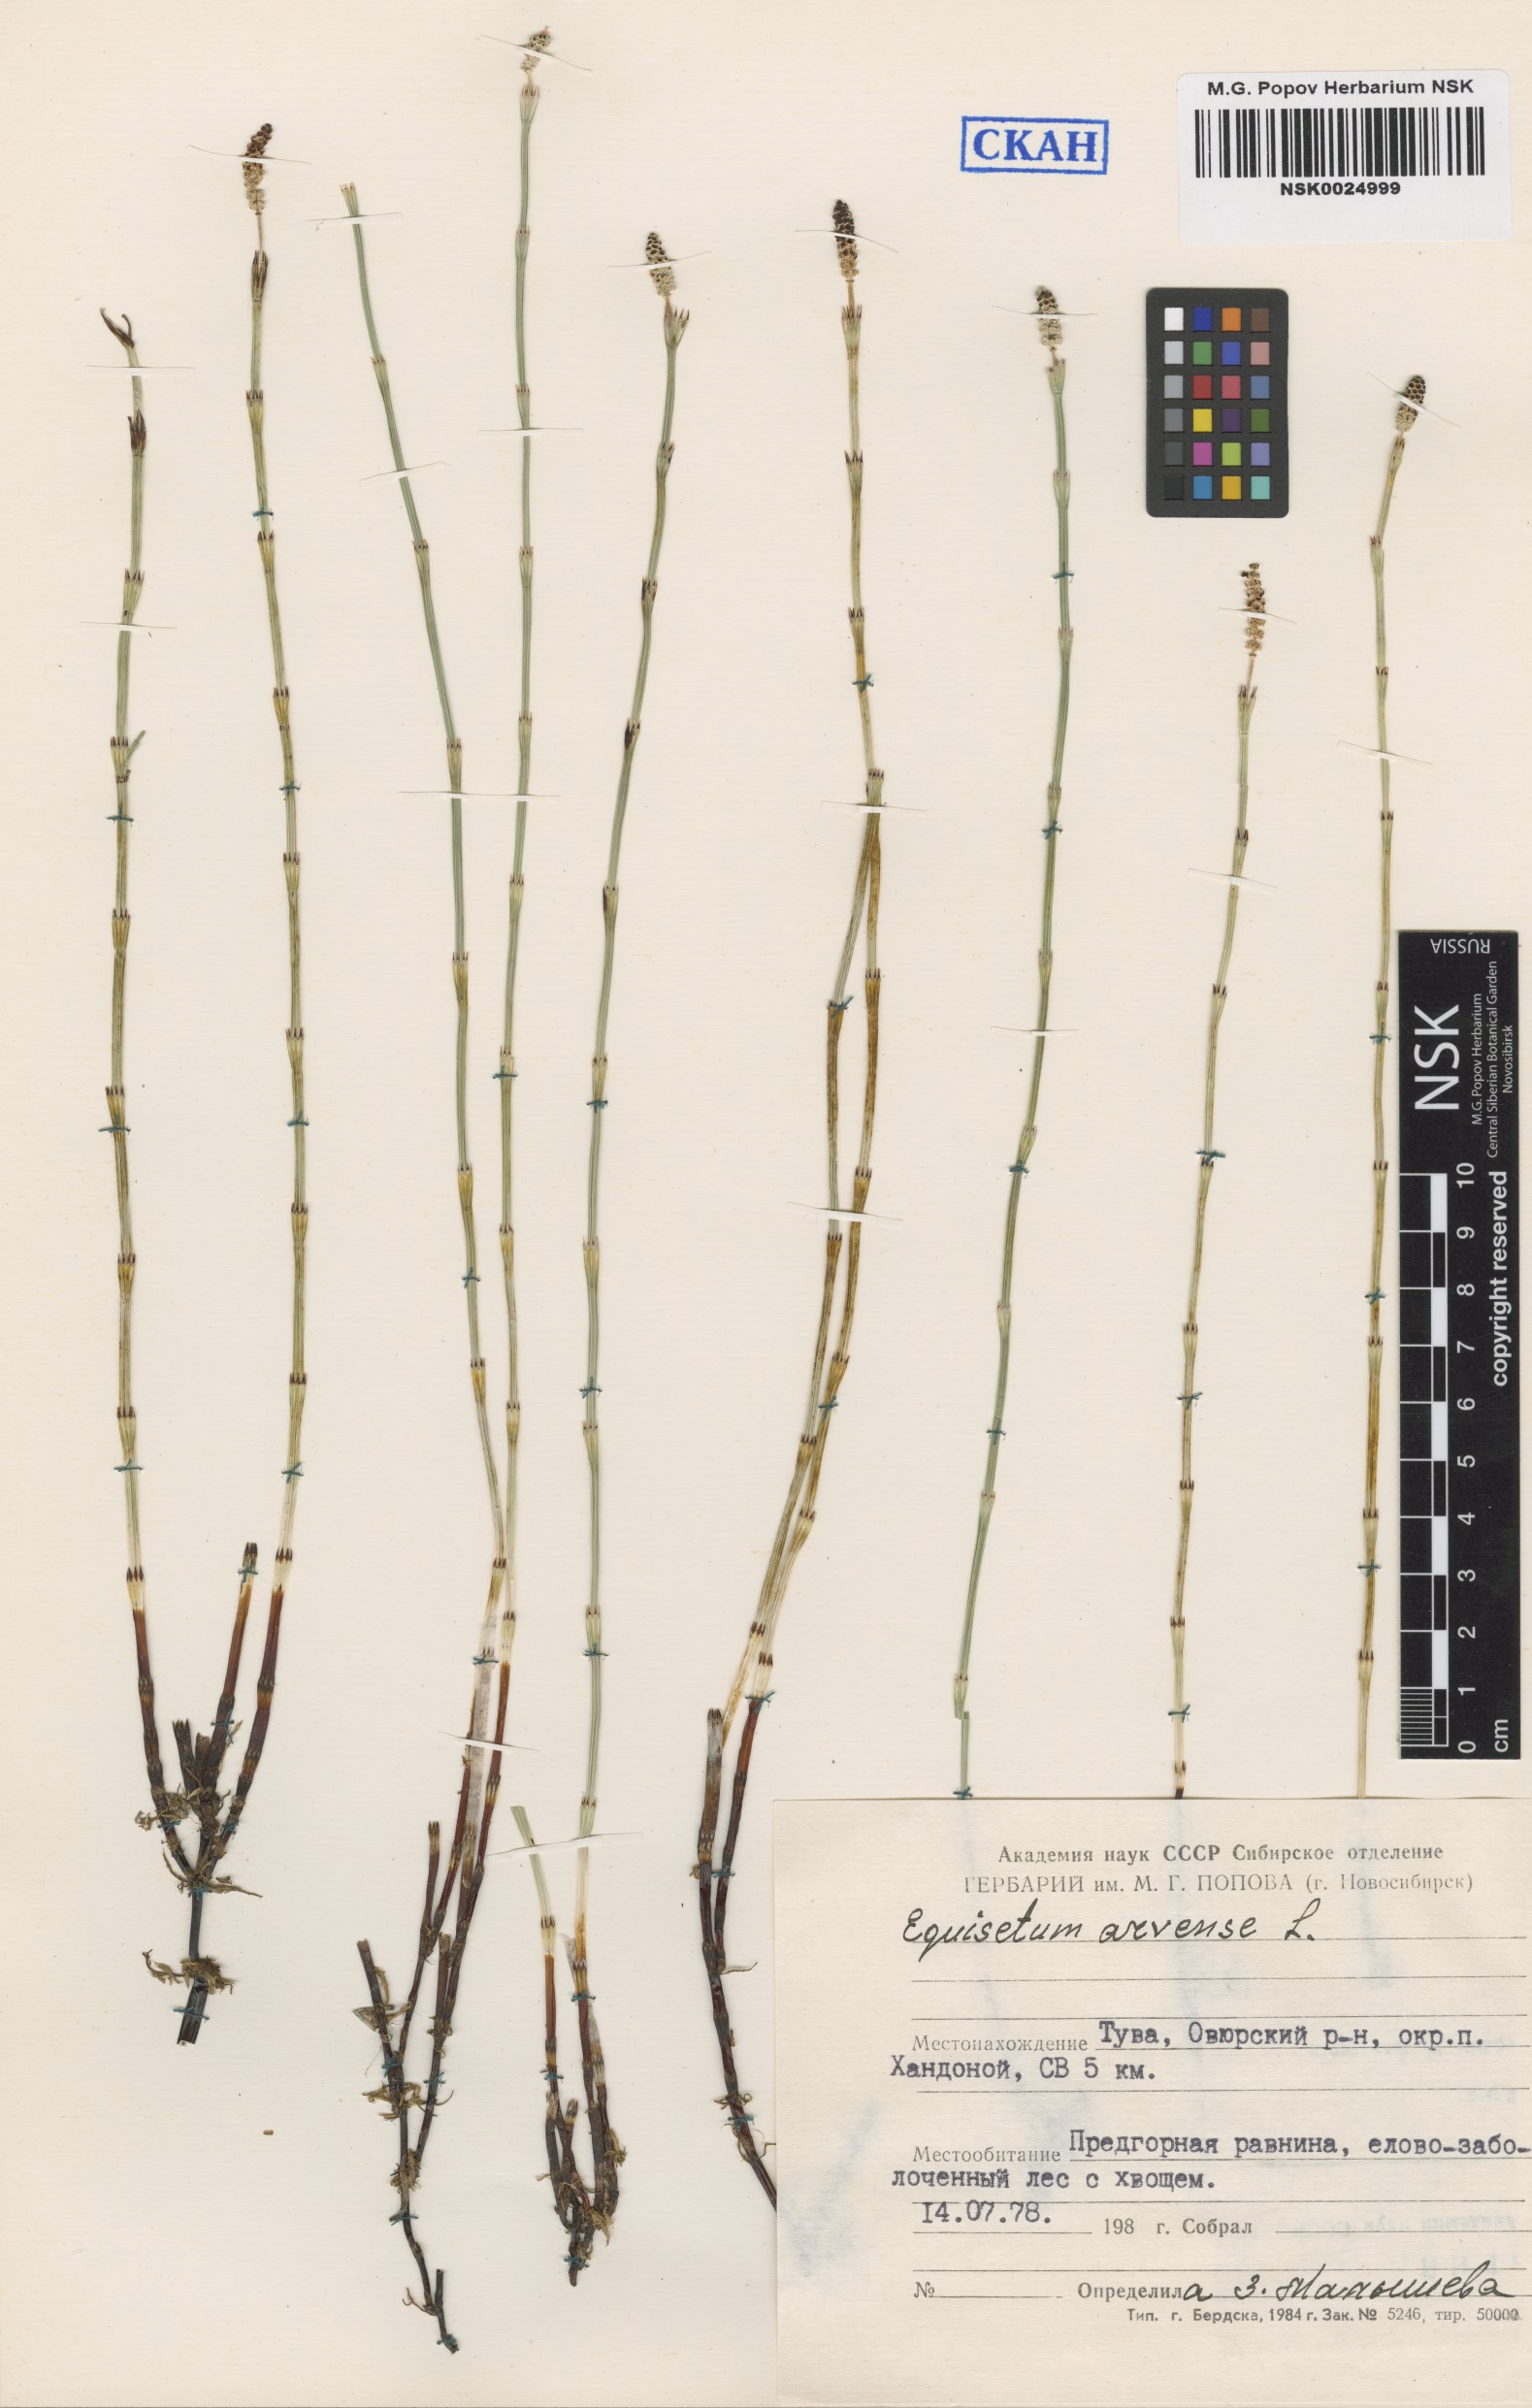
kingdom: Plantae
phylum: Tracheophyta
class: Polypodiopsida
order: Equisetales
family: Equisetaceae
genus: Equisetum
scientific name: Equisetum arvense
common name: Field horsetail
